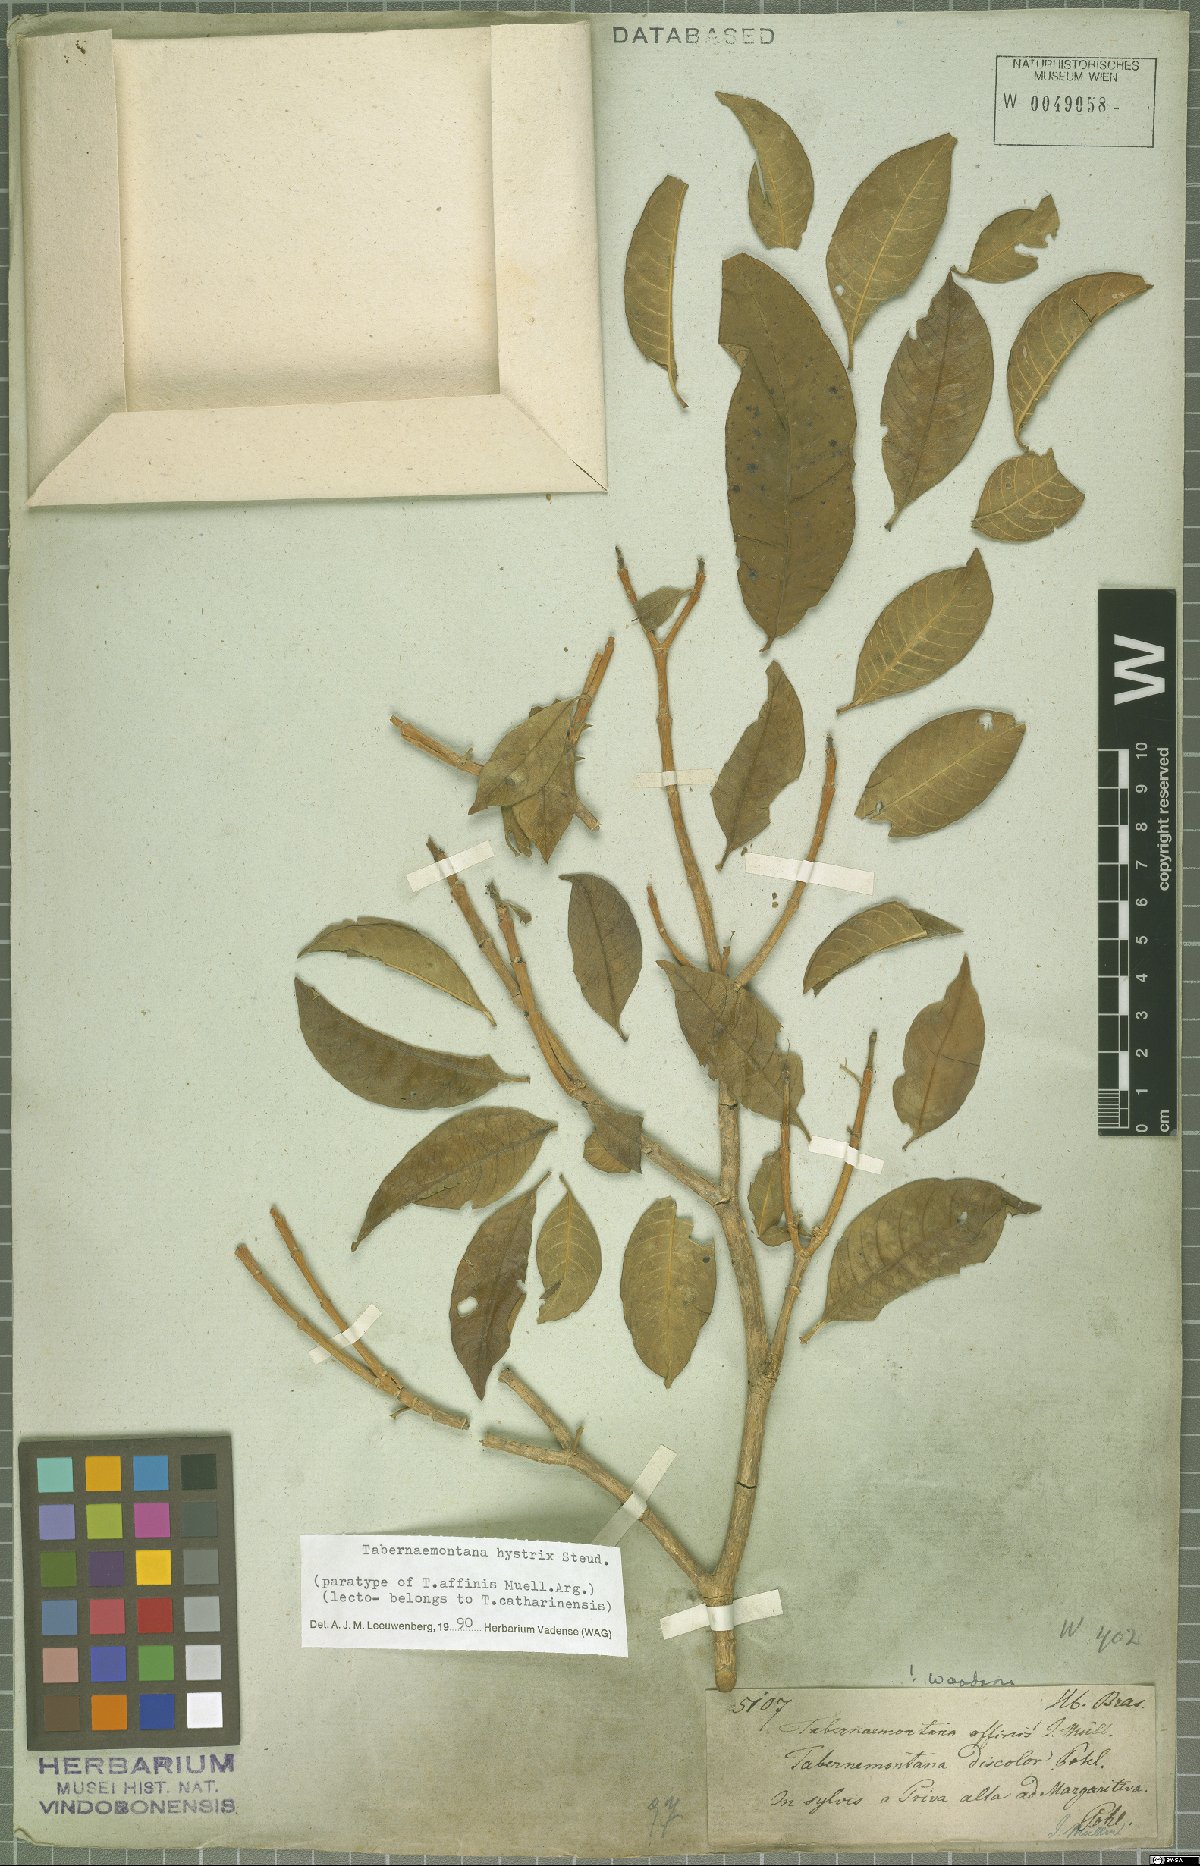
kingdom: Plantae
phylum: Tracheophyta
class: Magnoliopsida
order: Gentianales
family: Apocynaceae
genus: Tabernaemontana
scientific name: Tabernaemontana hystrix
